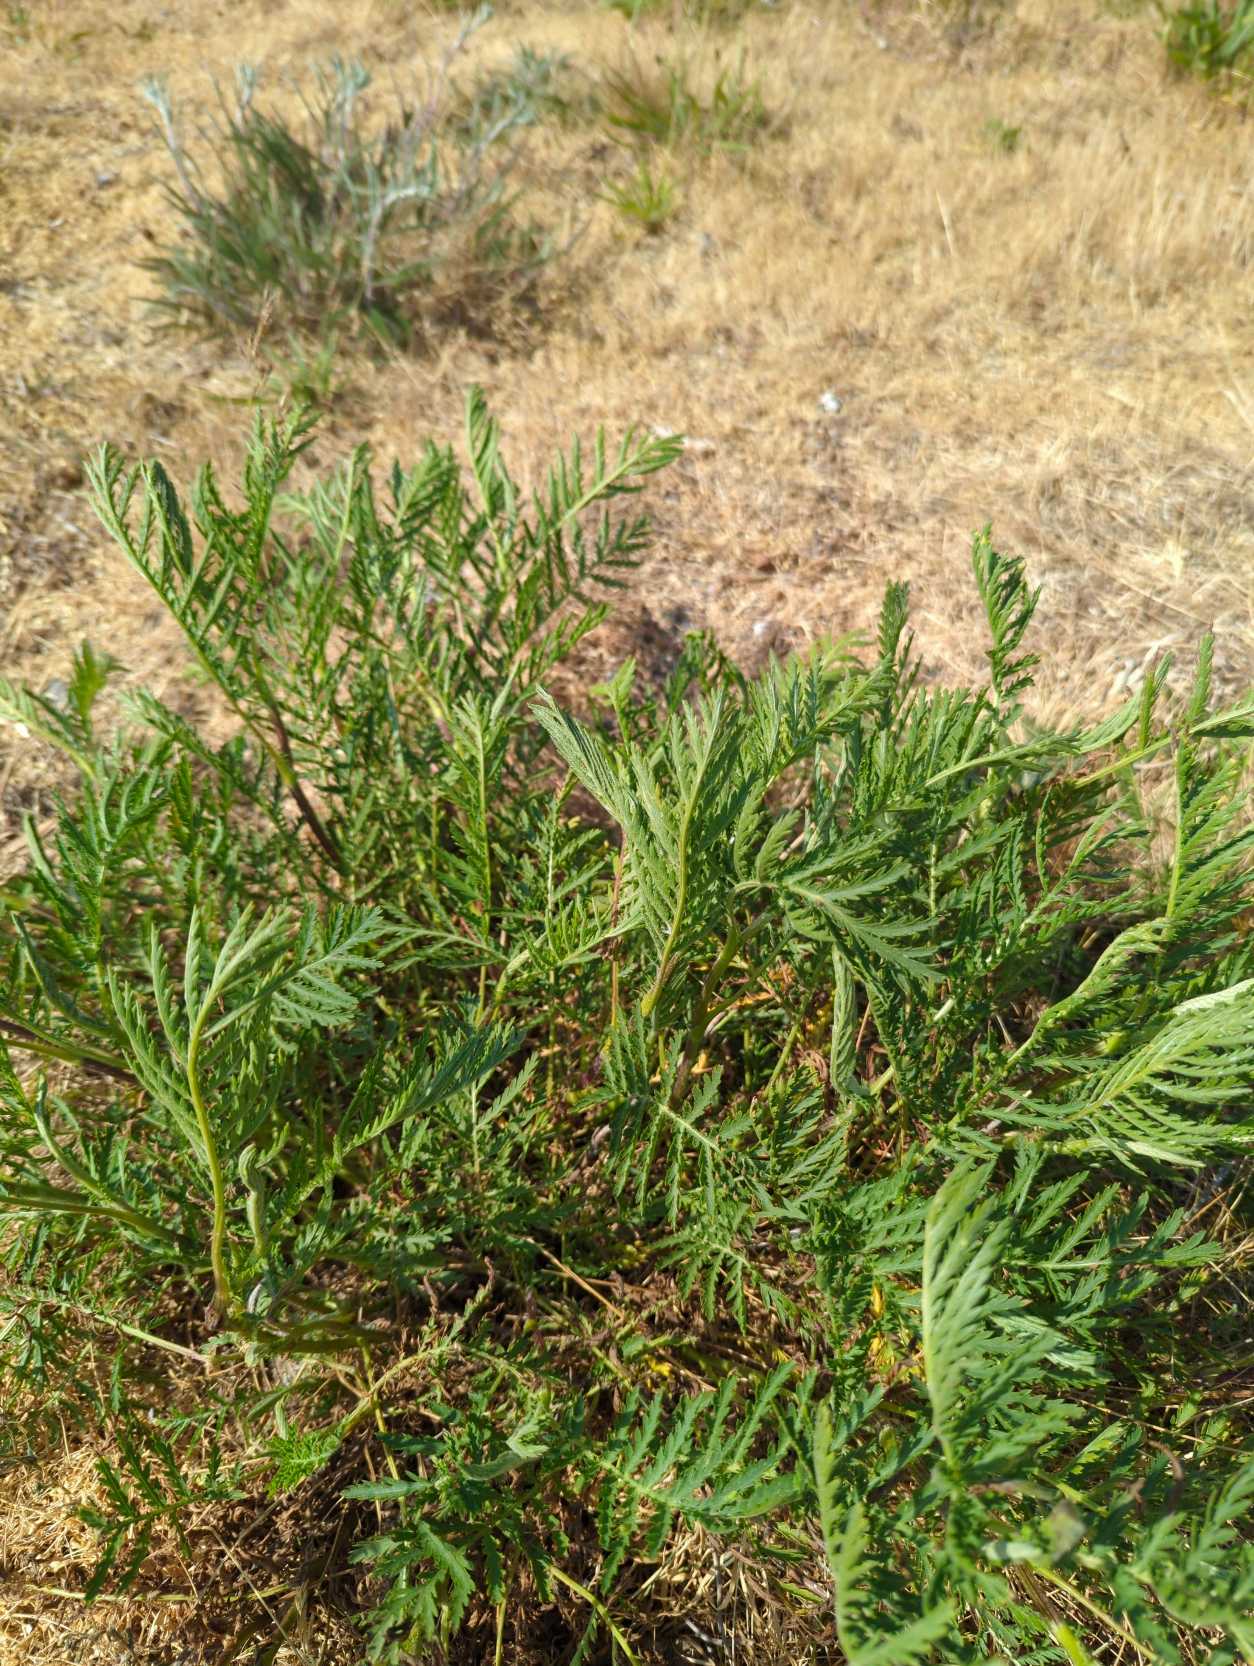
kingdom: Plantae
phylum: Tracheophyta
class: Magnoliopsida
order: Asterales
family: Asteraceae
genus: Tanacetum
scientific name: Tanacetum vulgare
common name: Rejnfan
